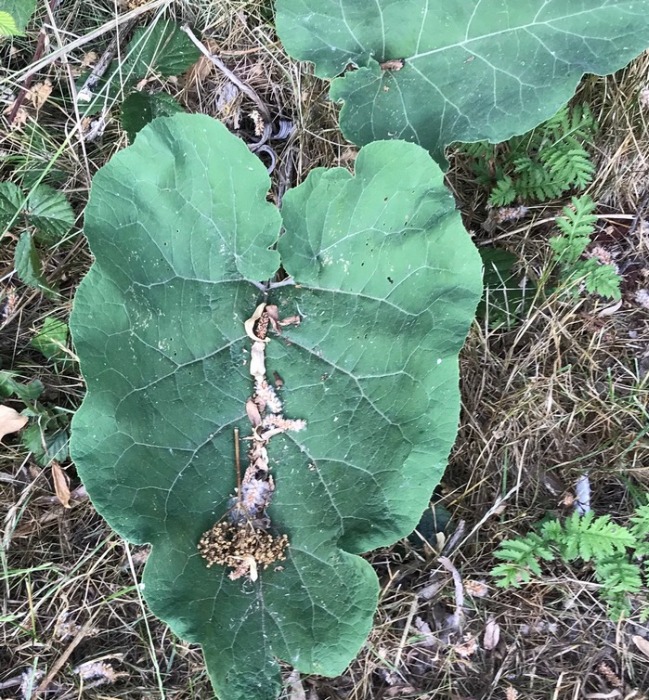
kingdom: Plantae
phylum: Tracheophyta
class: Magnoliopsida
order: Asterales
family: Asteraceae
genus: Arctium
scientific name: Arctium
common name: Burreslægten
